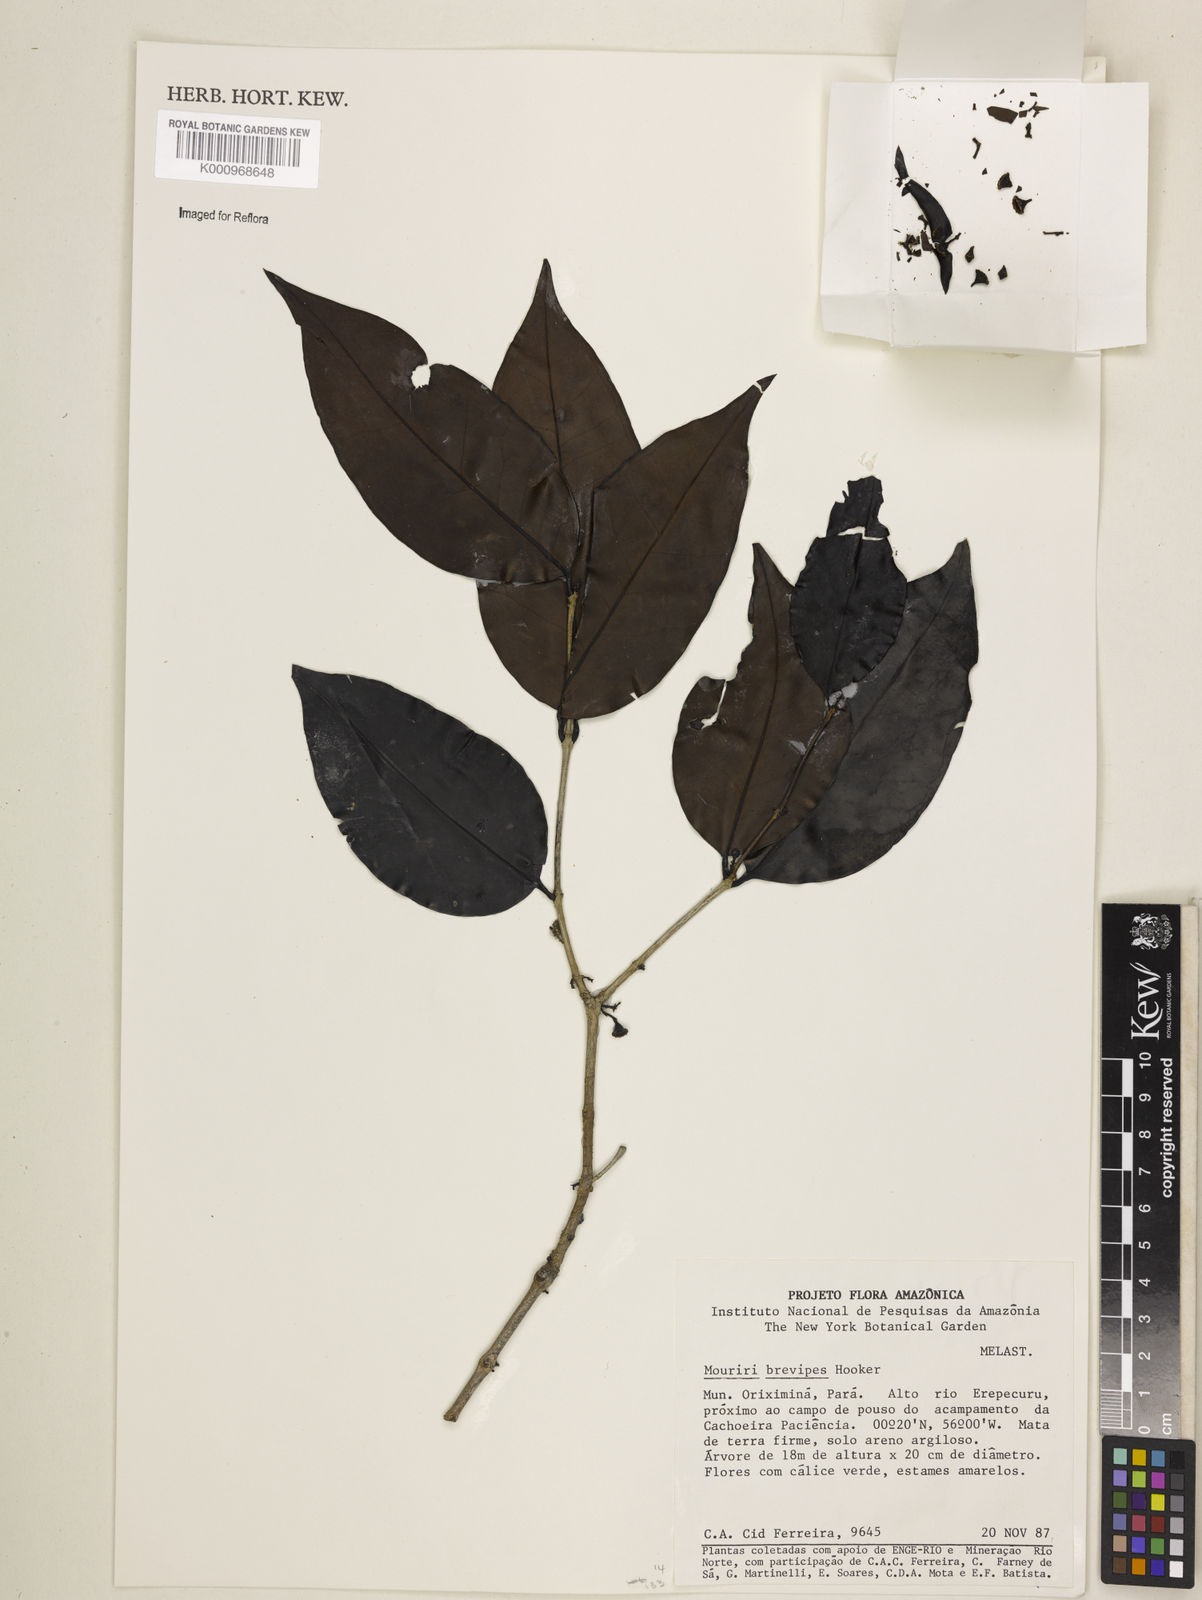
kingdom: Plantae
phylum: Tracheophyta
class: Magnoliopsida
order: Myrtales
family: Melastomataceae
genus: Mouriri
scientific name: Mouriri
